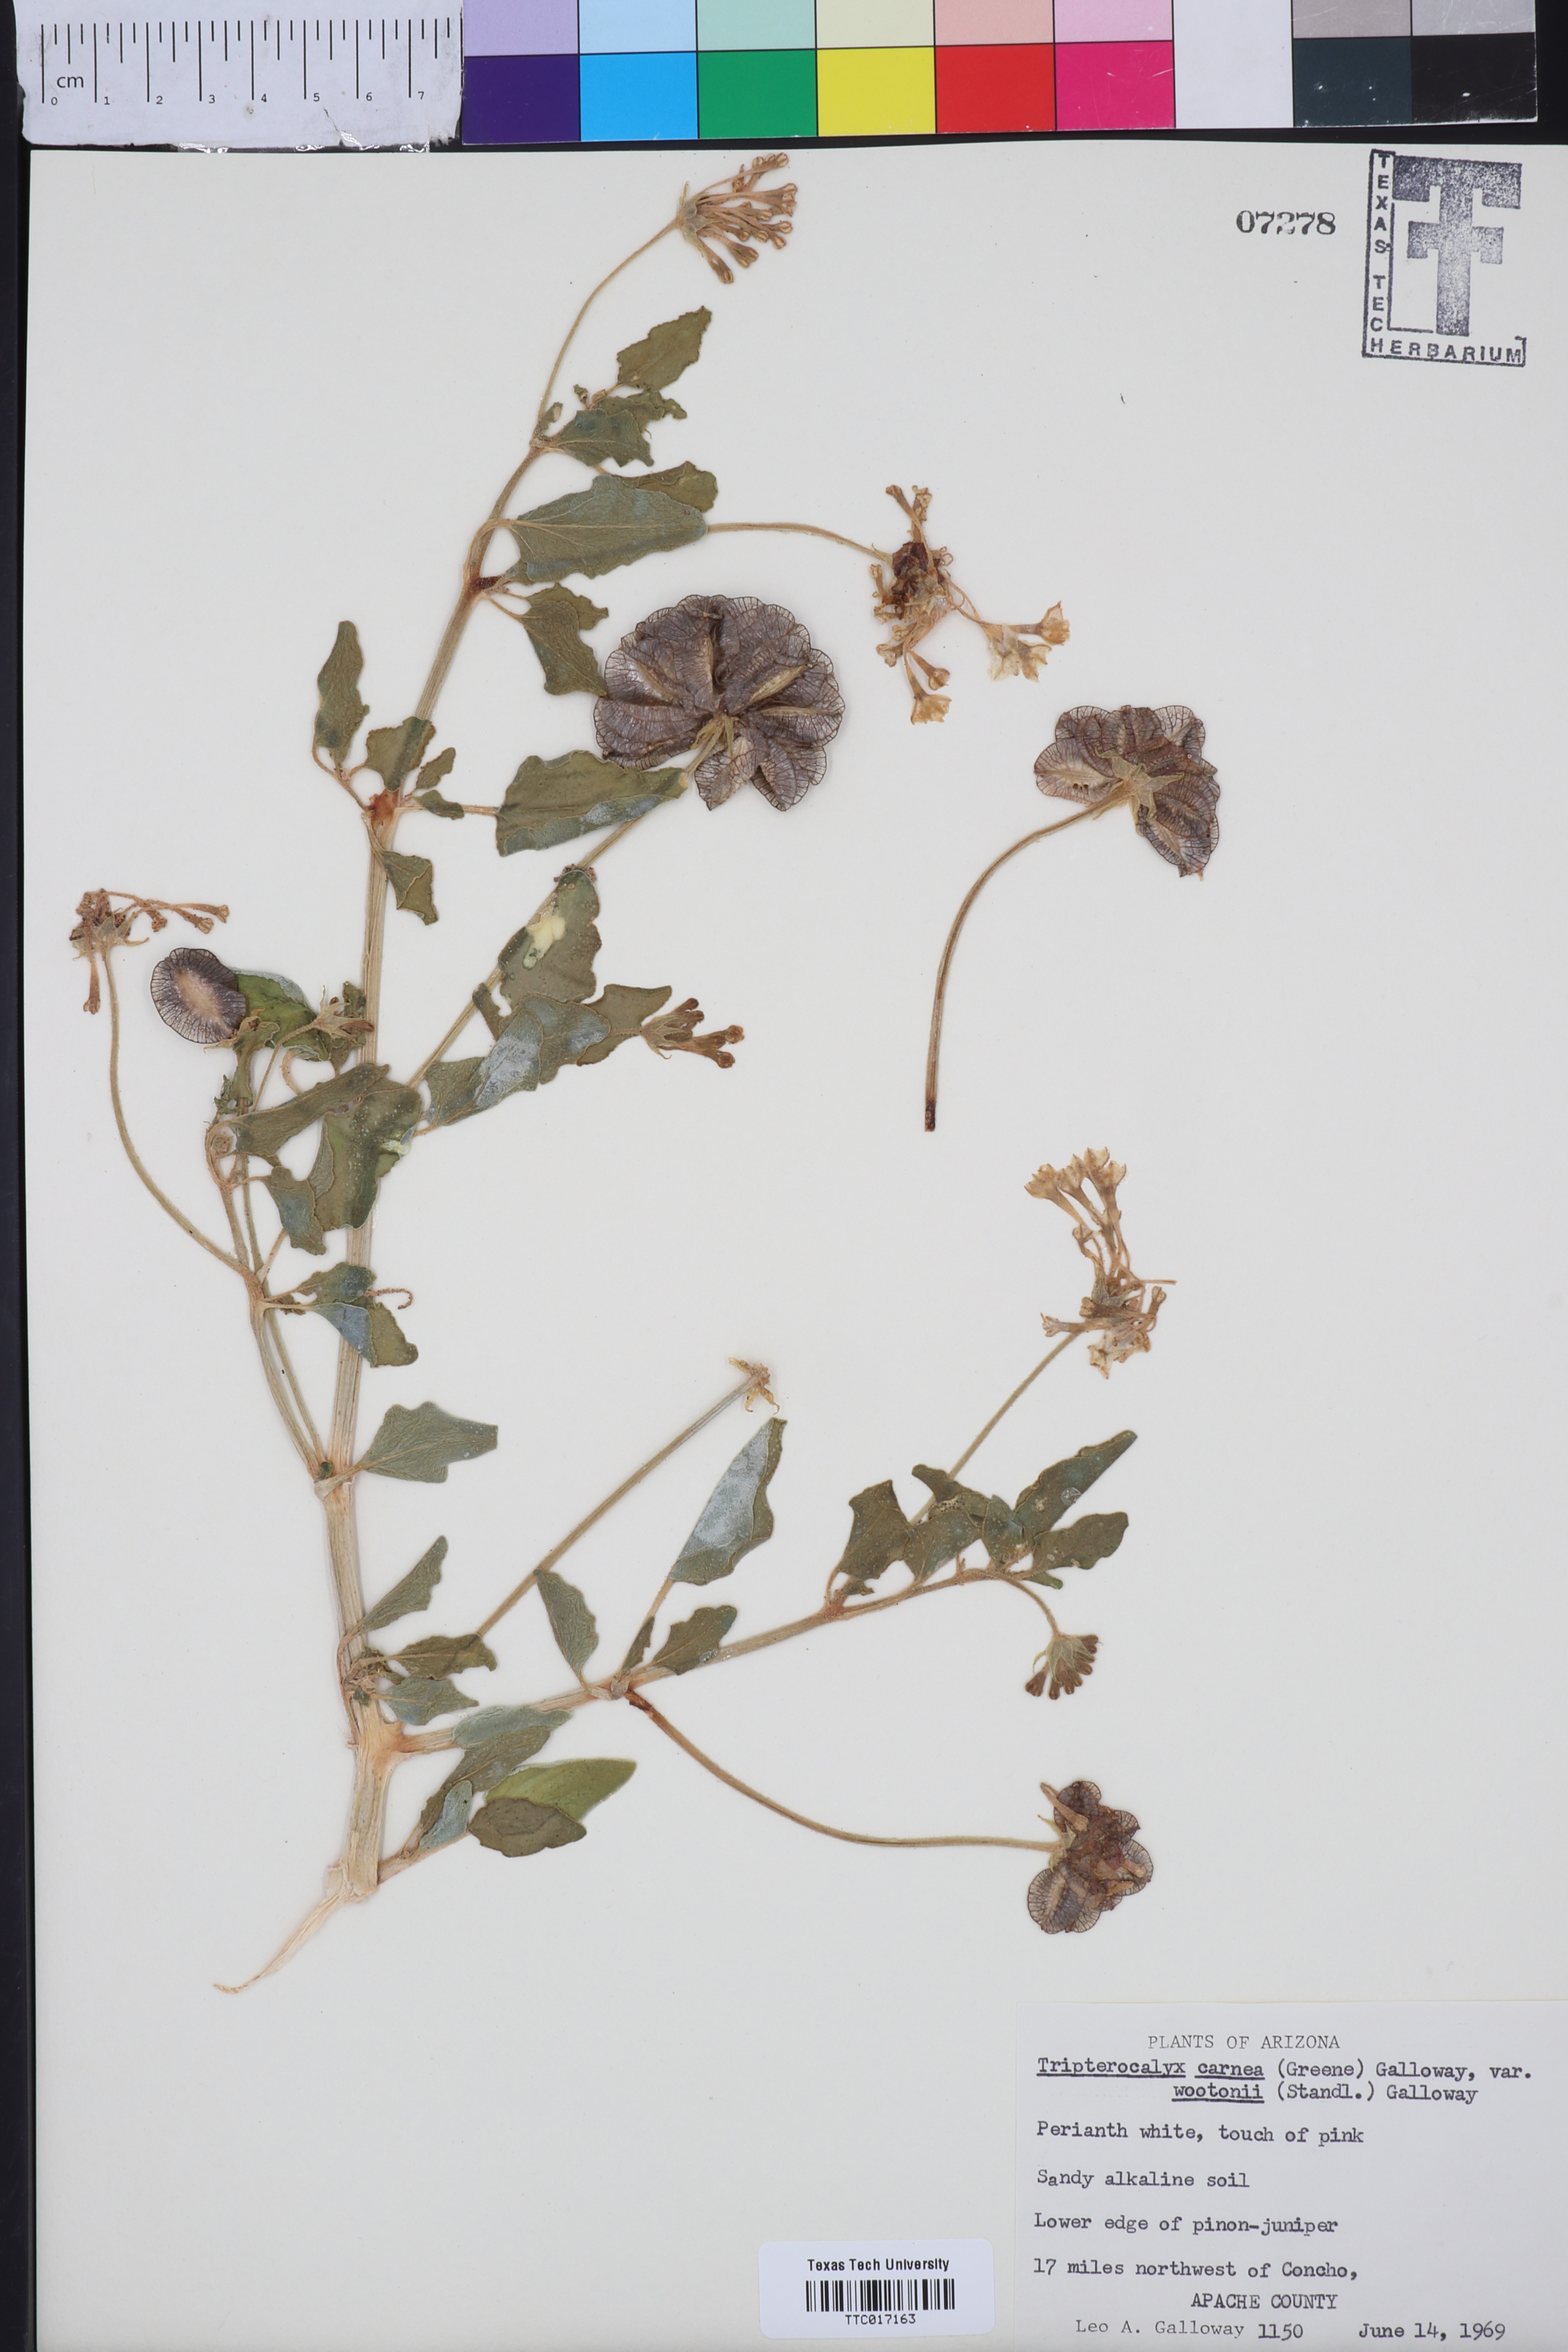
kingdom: Plantae
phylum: Tracheophyta
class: Magnoliopsida
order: Caryophyllales
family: Nyctaginaceae
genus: Tripterocalyx
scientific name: Tripterocalyx wootonii
